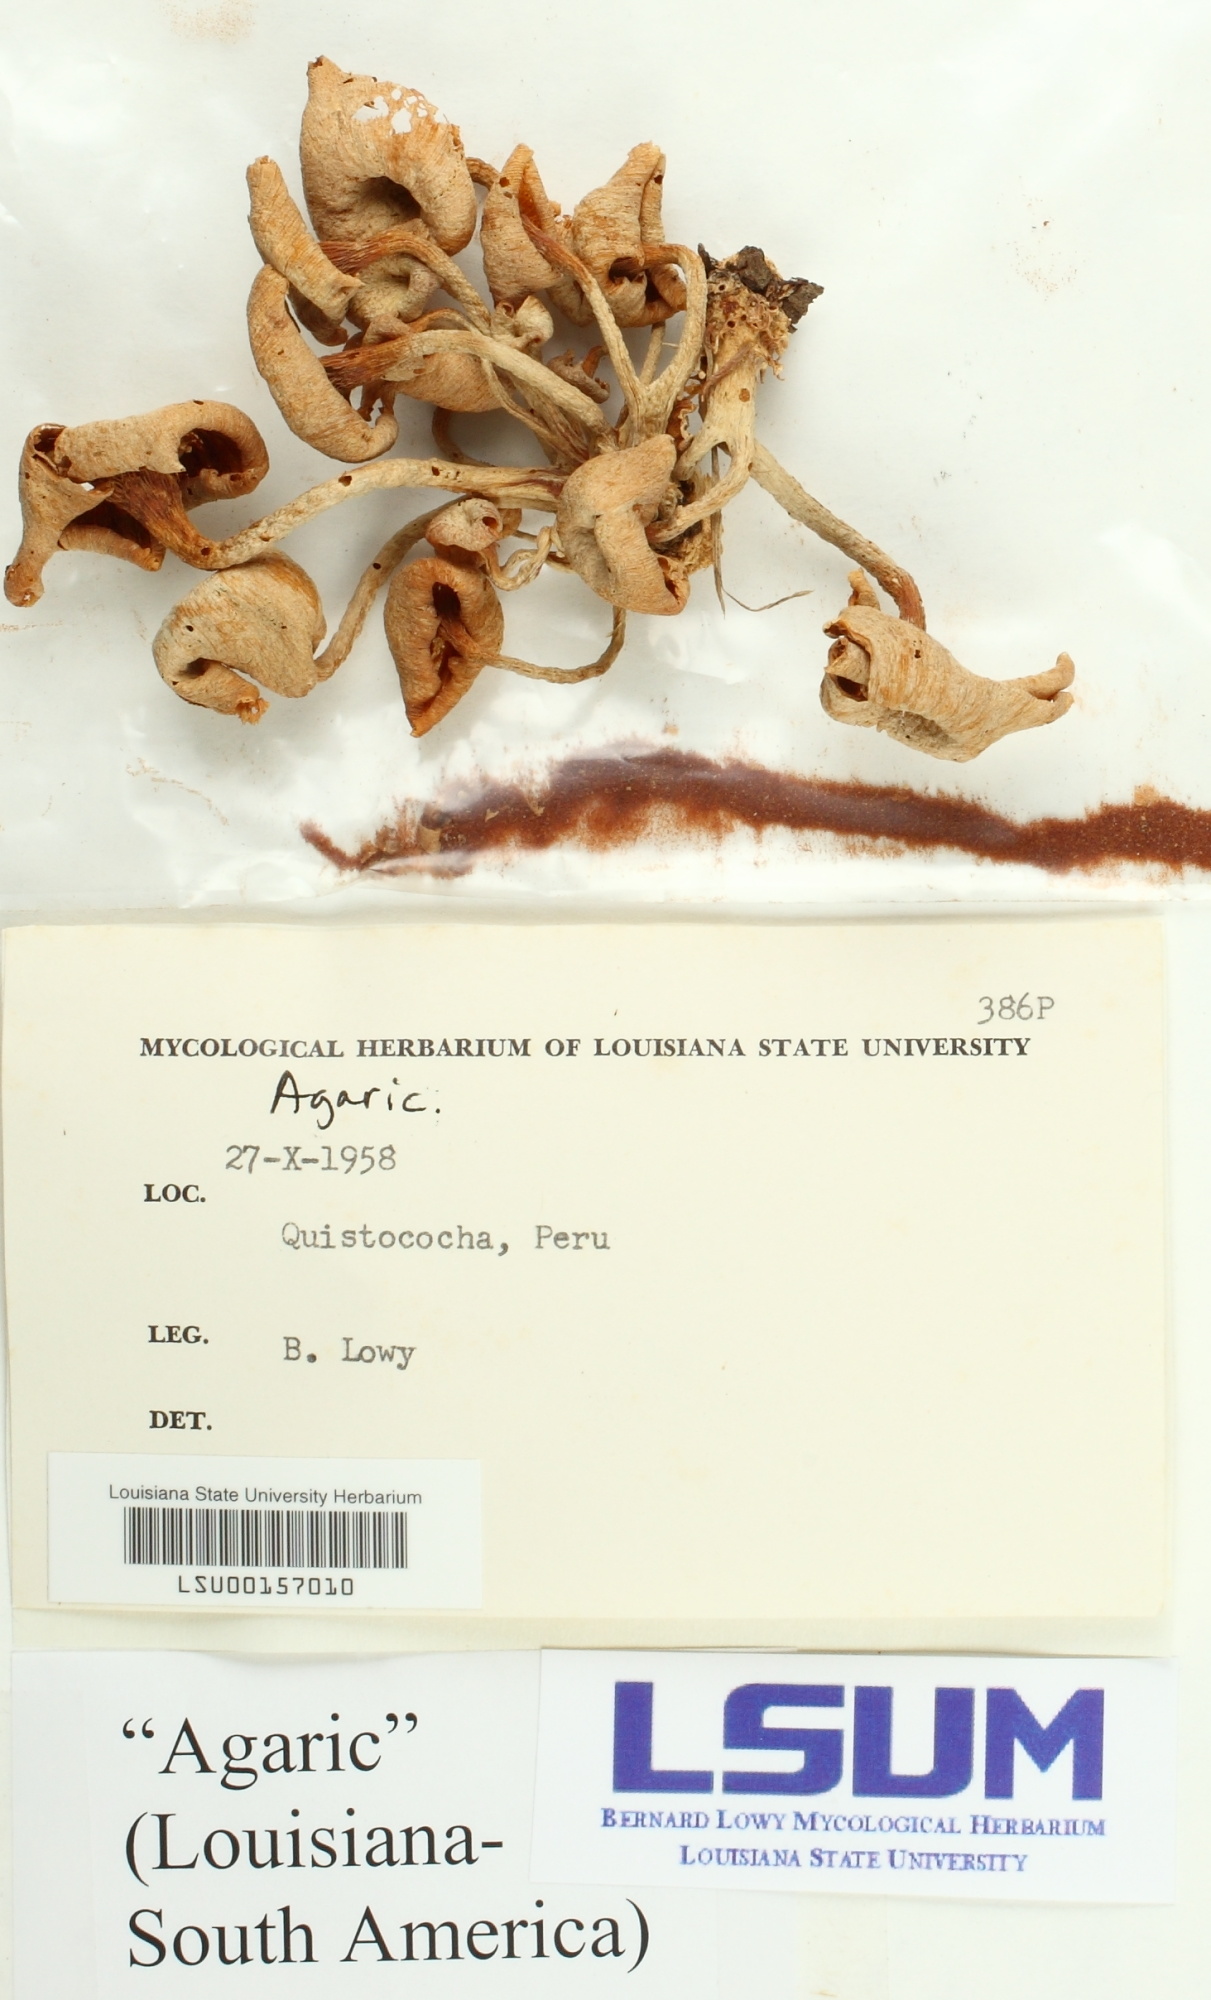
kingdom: Fungi
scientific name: Fungi
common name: Fungi
